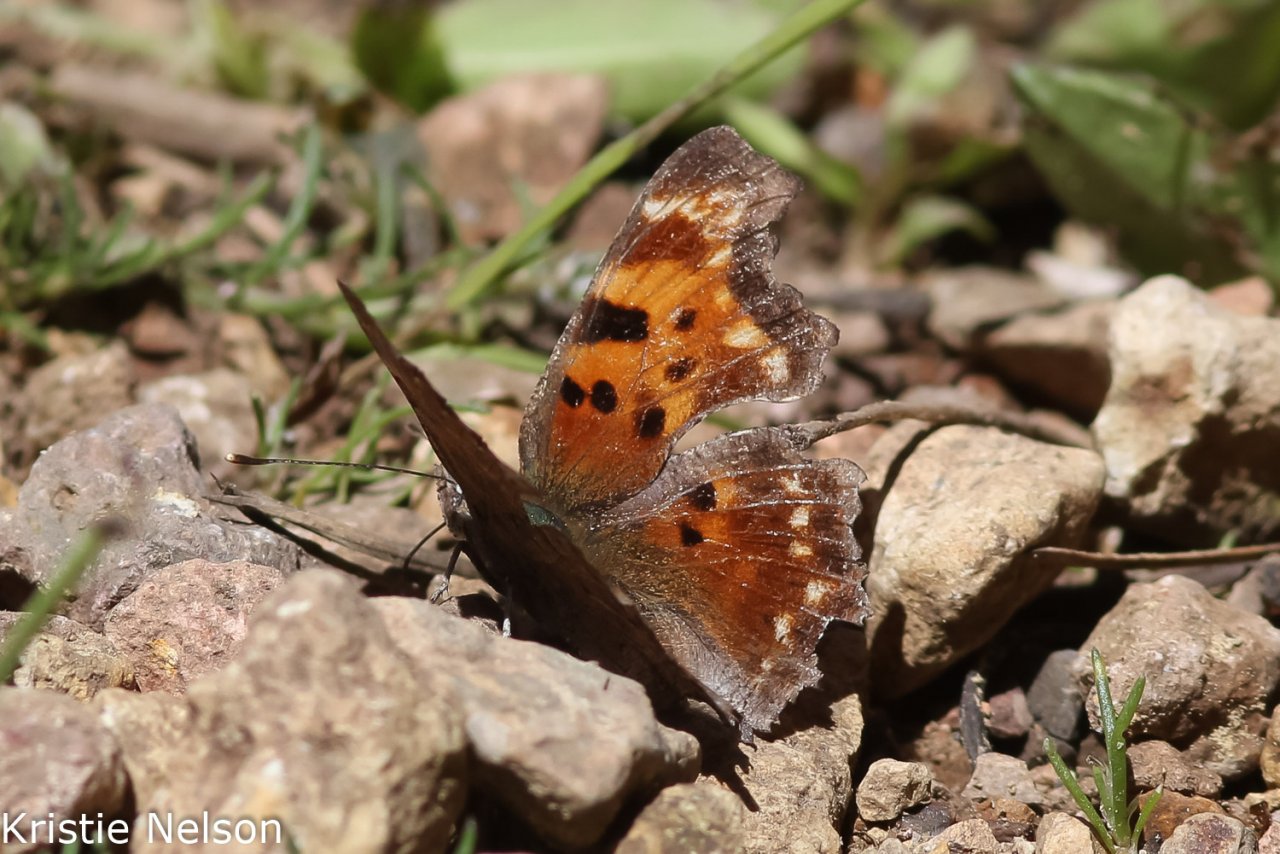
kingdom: Animalia
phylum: Arthropoda
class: Insecta
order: Lepidoptera
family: Nymphalidae
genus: Polygonia
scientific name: Polygonia faunus
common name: Green Comma
